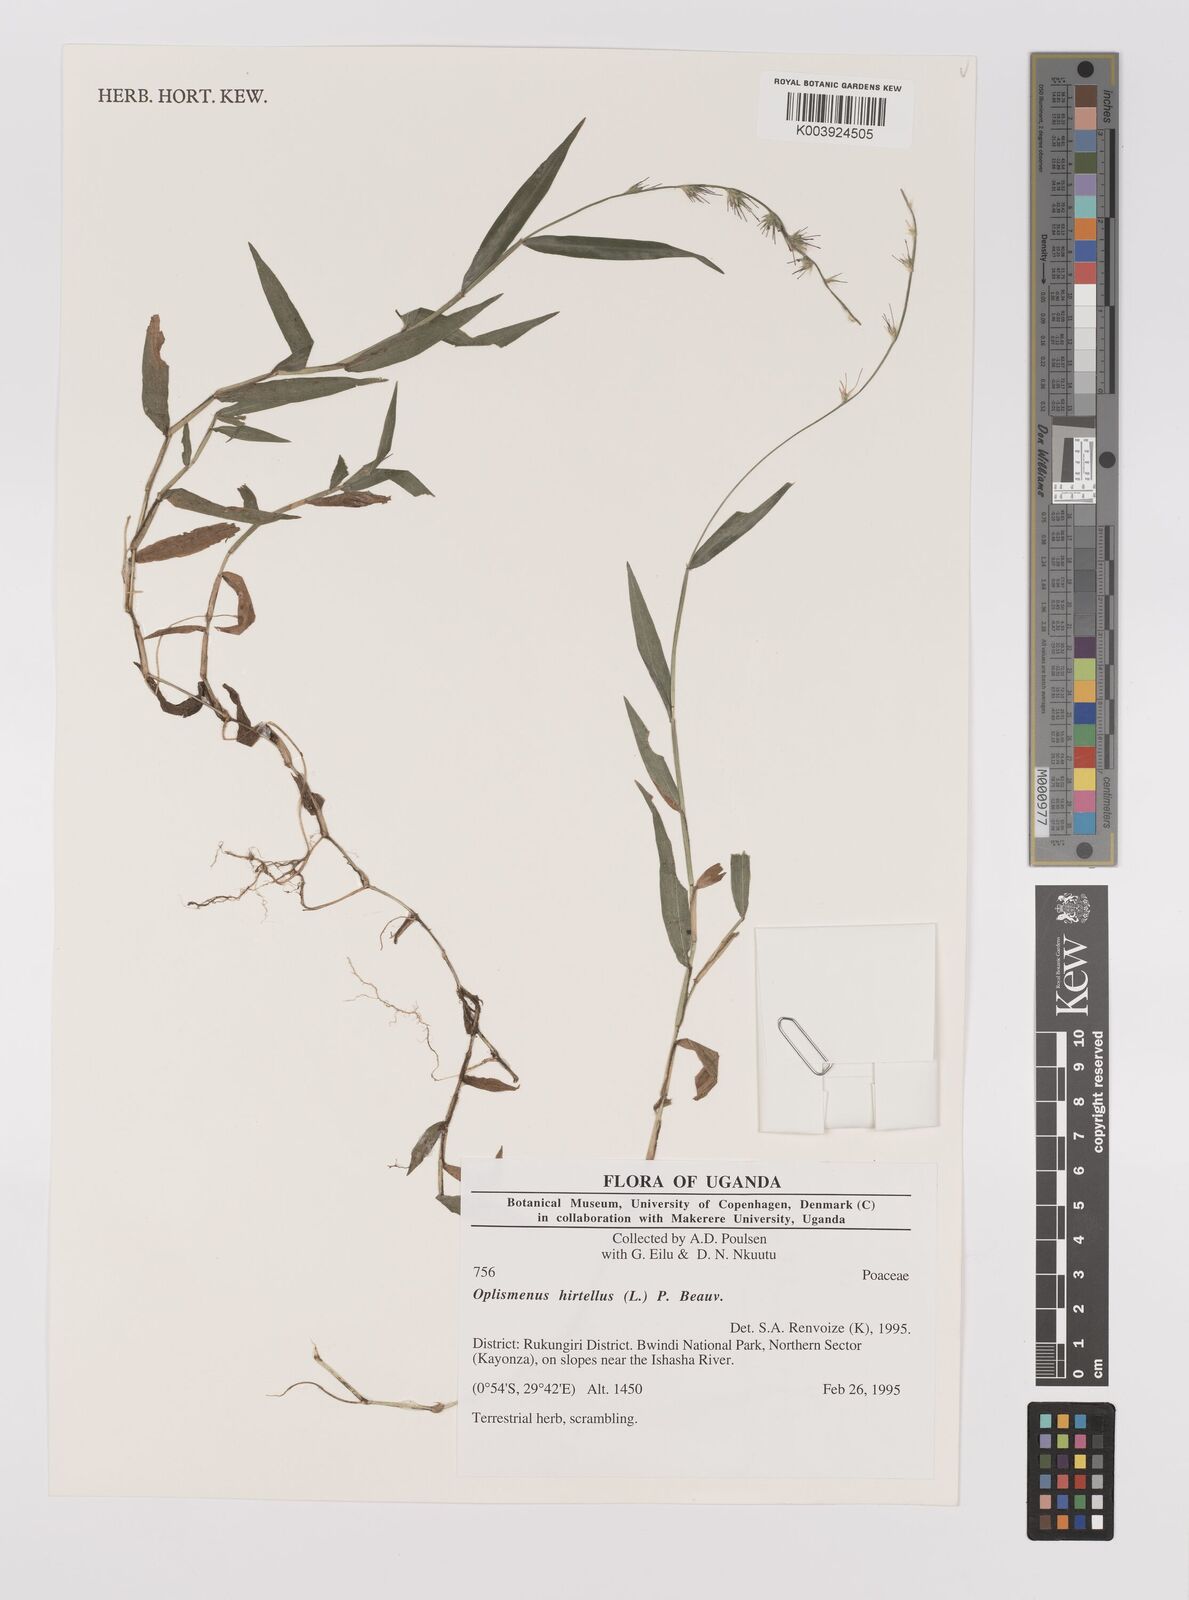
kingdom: Plantae
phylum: Tracheophyta
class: Liliopsida
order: Poales
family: Poaceae
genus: Oplismenus
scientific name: Oplismenus hirtellus
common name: Basketgrass
